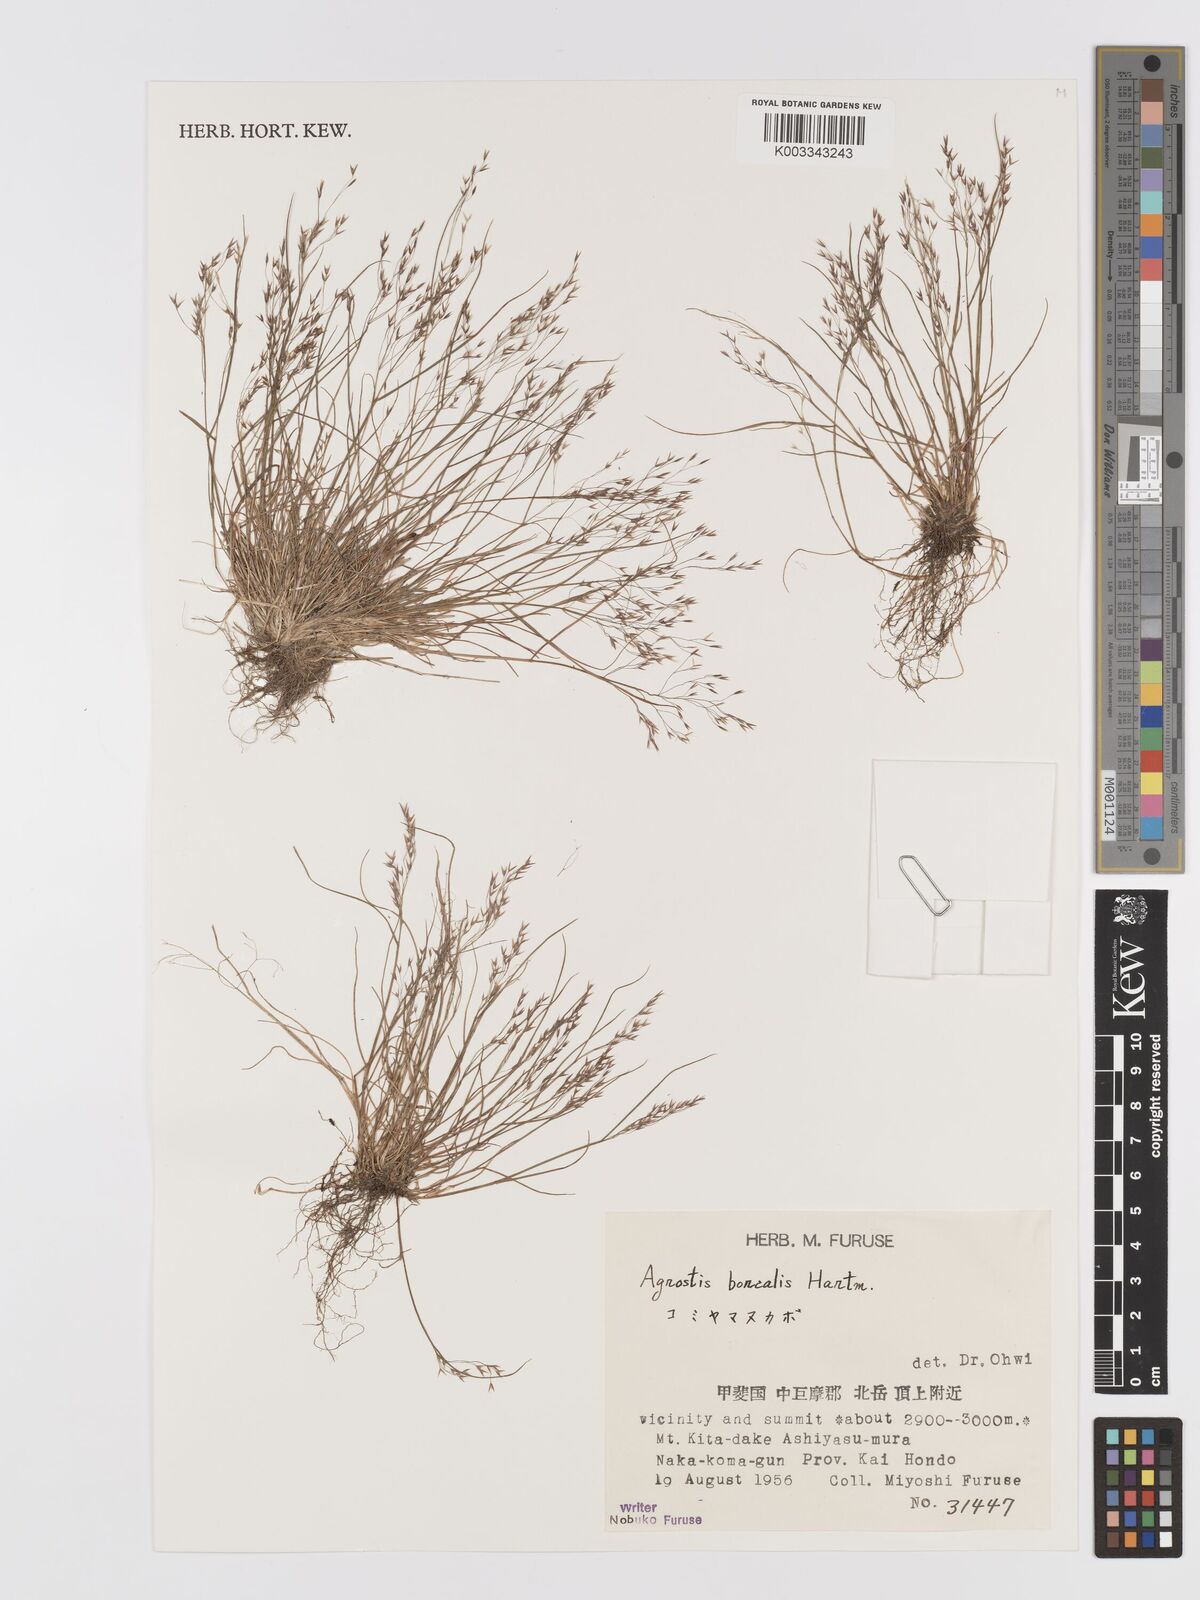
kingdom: Plantae
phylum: Tracheophyta
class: Liliopsida
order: Poales
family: Poaceae
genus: Agrostis
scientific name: Agrostis mertensii
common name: Northern bent
